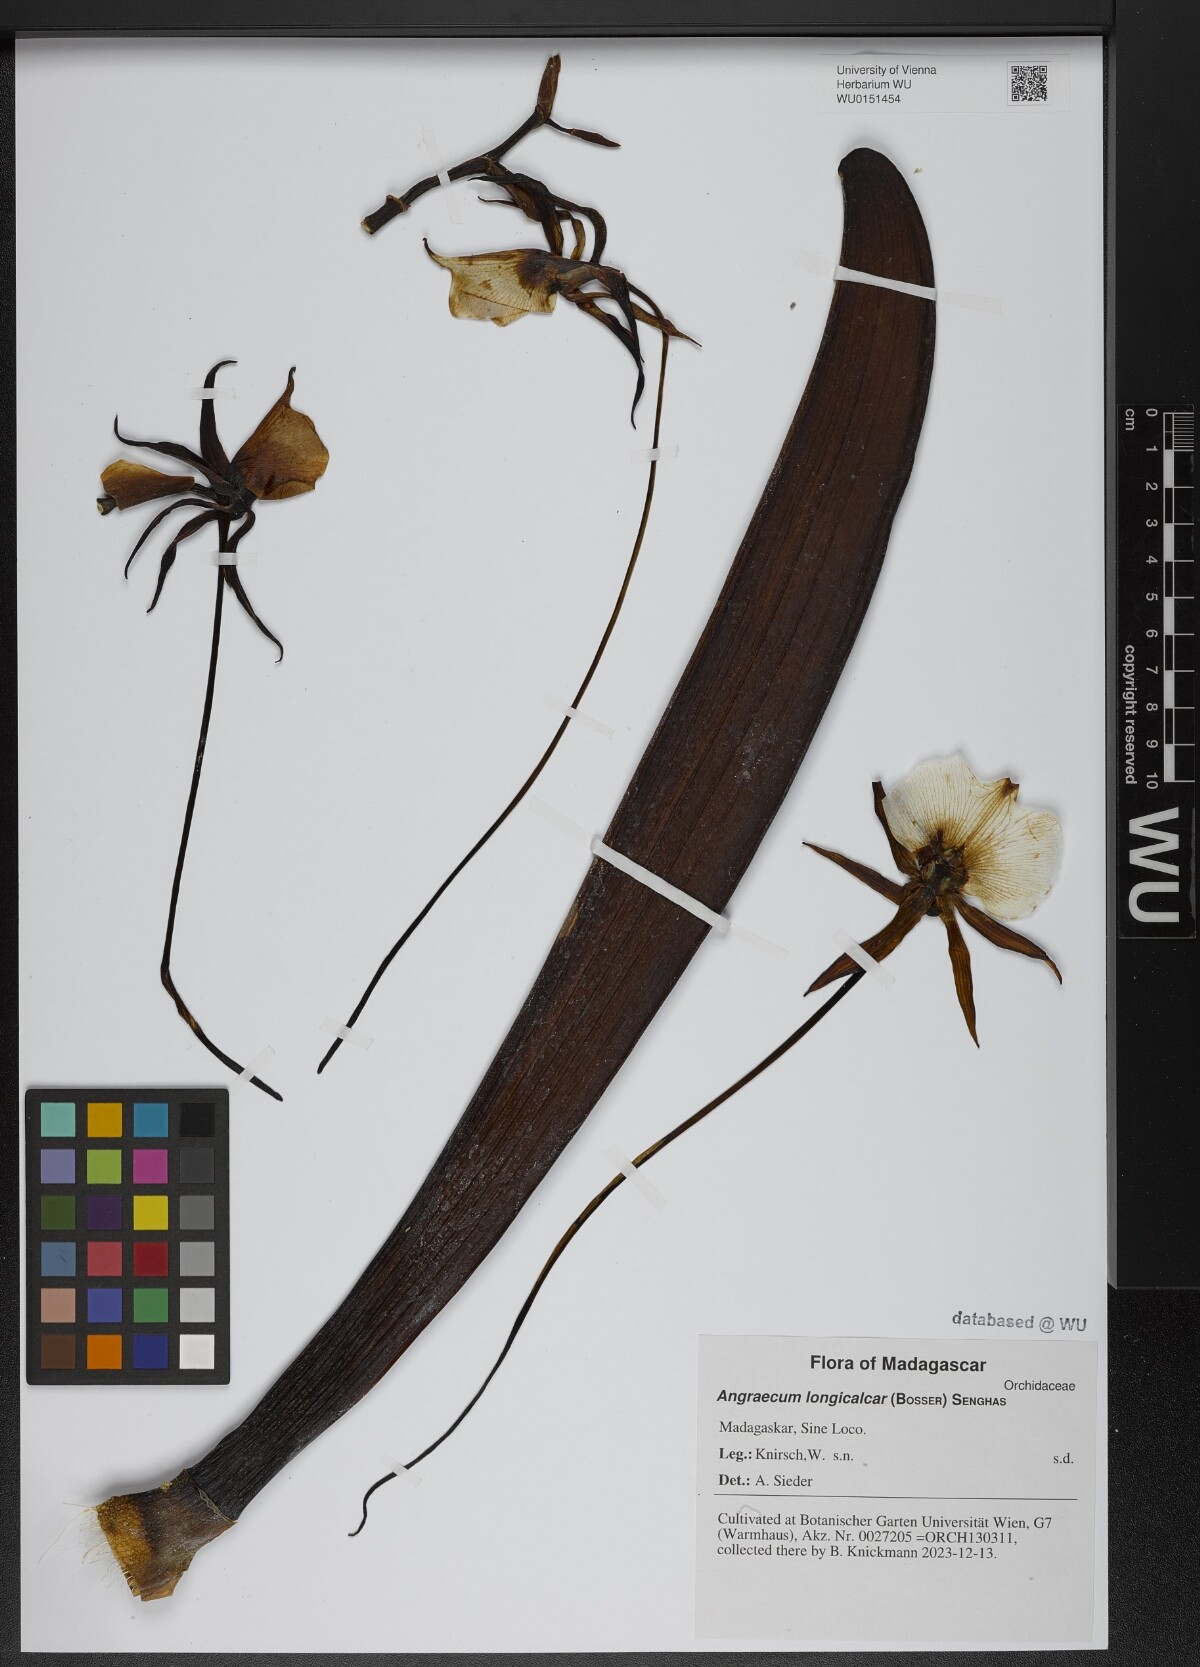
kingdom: Plantae
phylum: Tracheophyta
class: Liliopsida
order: Asparagales
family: Orchidaceae
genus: Angraecum
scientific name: Angraecum longicalcar
